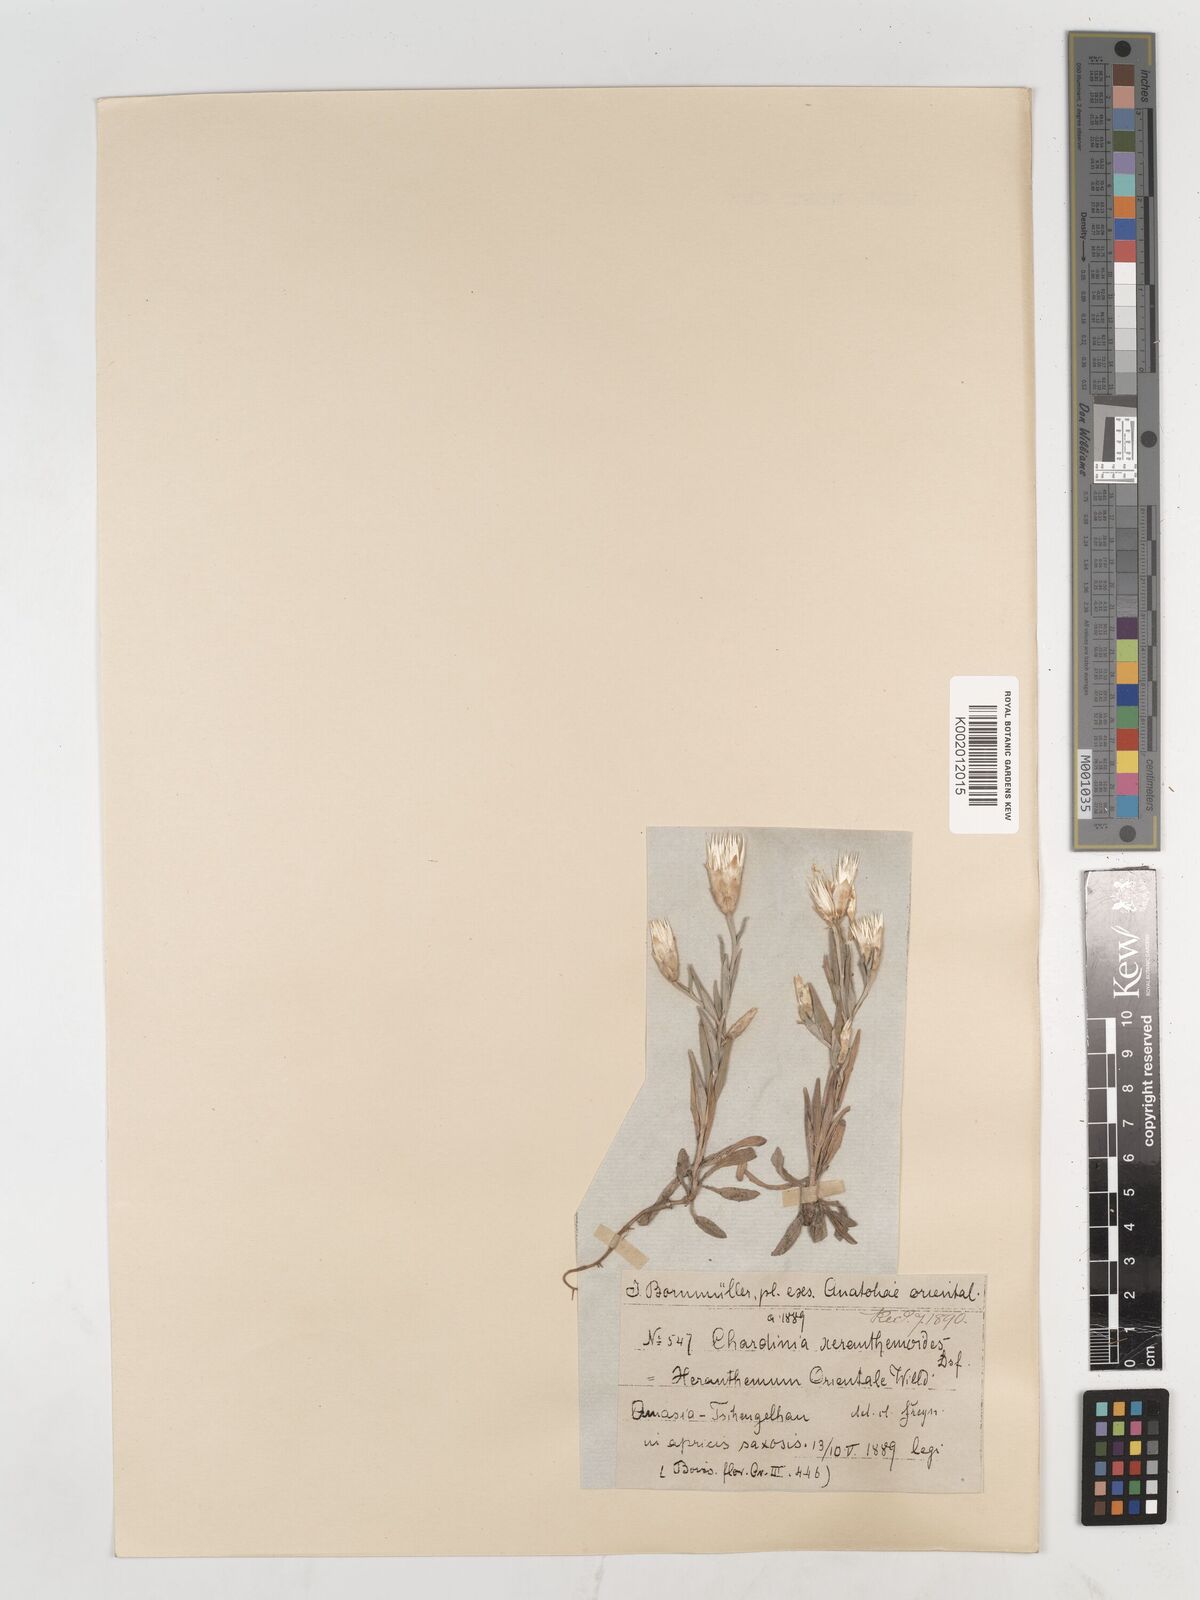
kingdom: Plantae
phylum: Tracheophyta
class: Magnoliopsida
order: Asterales
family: Asteraceae
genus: Chardinia
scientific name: Chardinia orientalis
